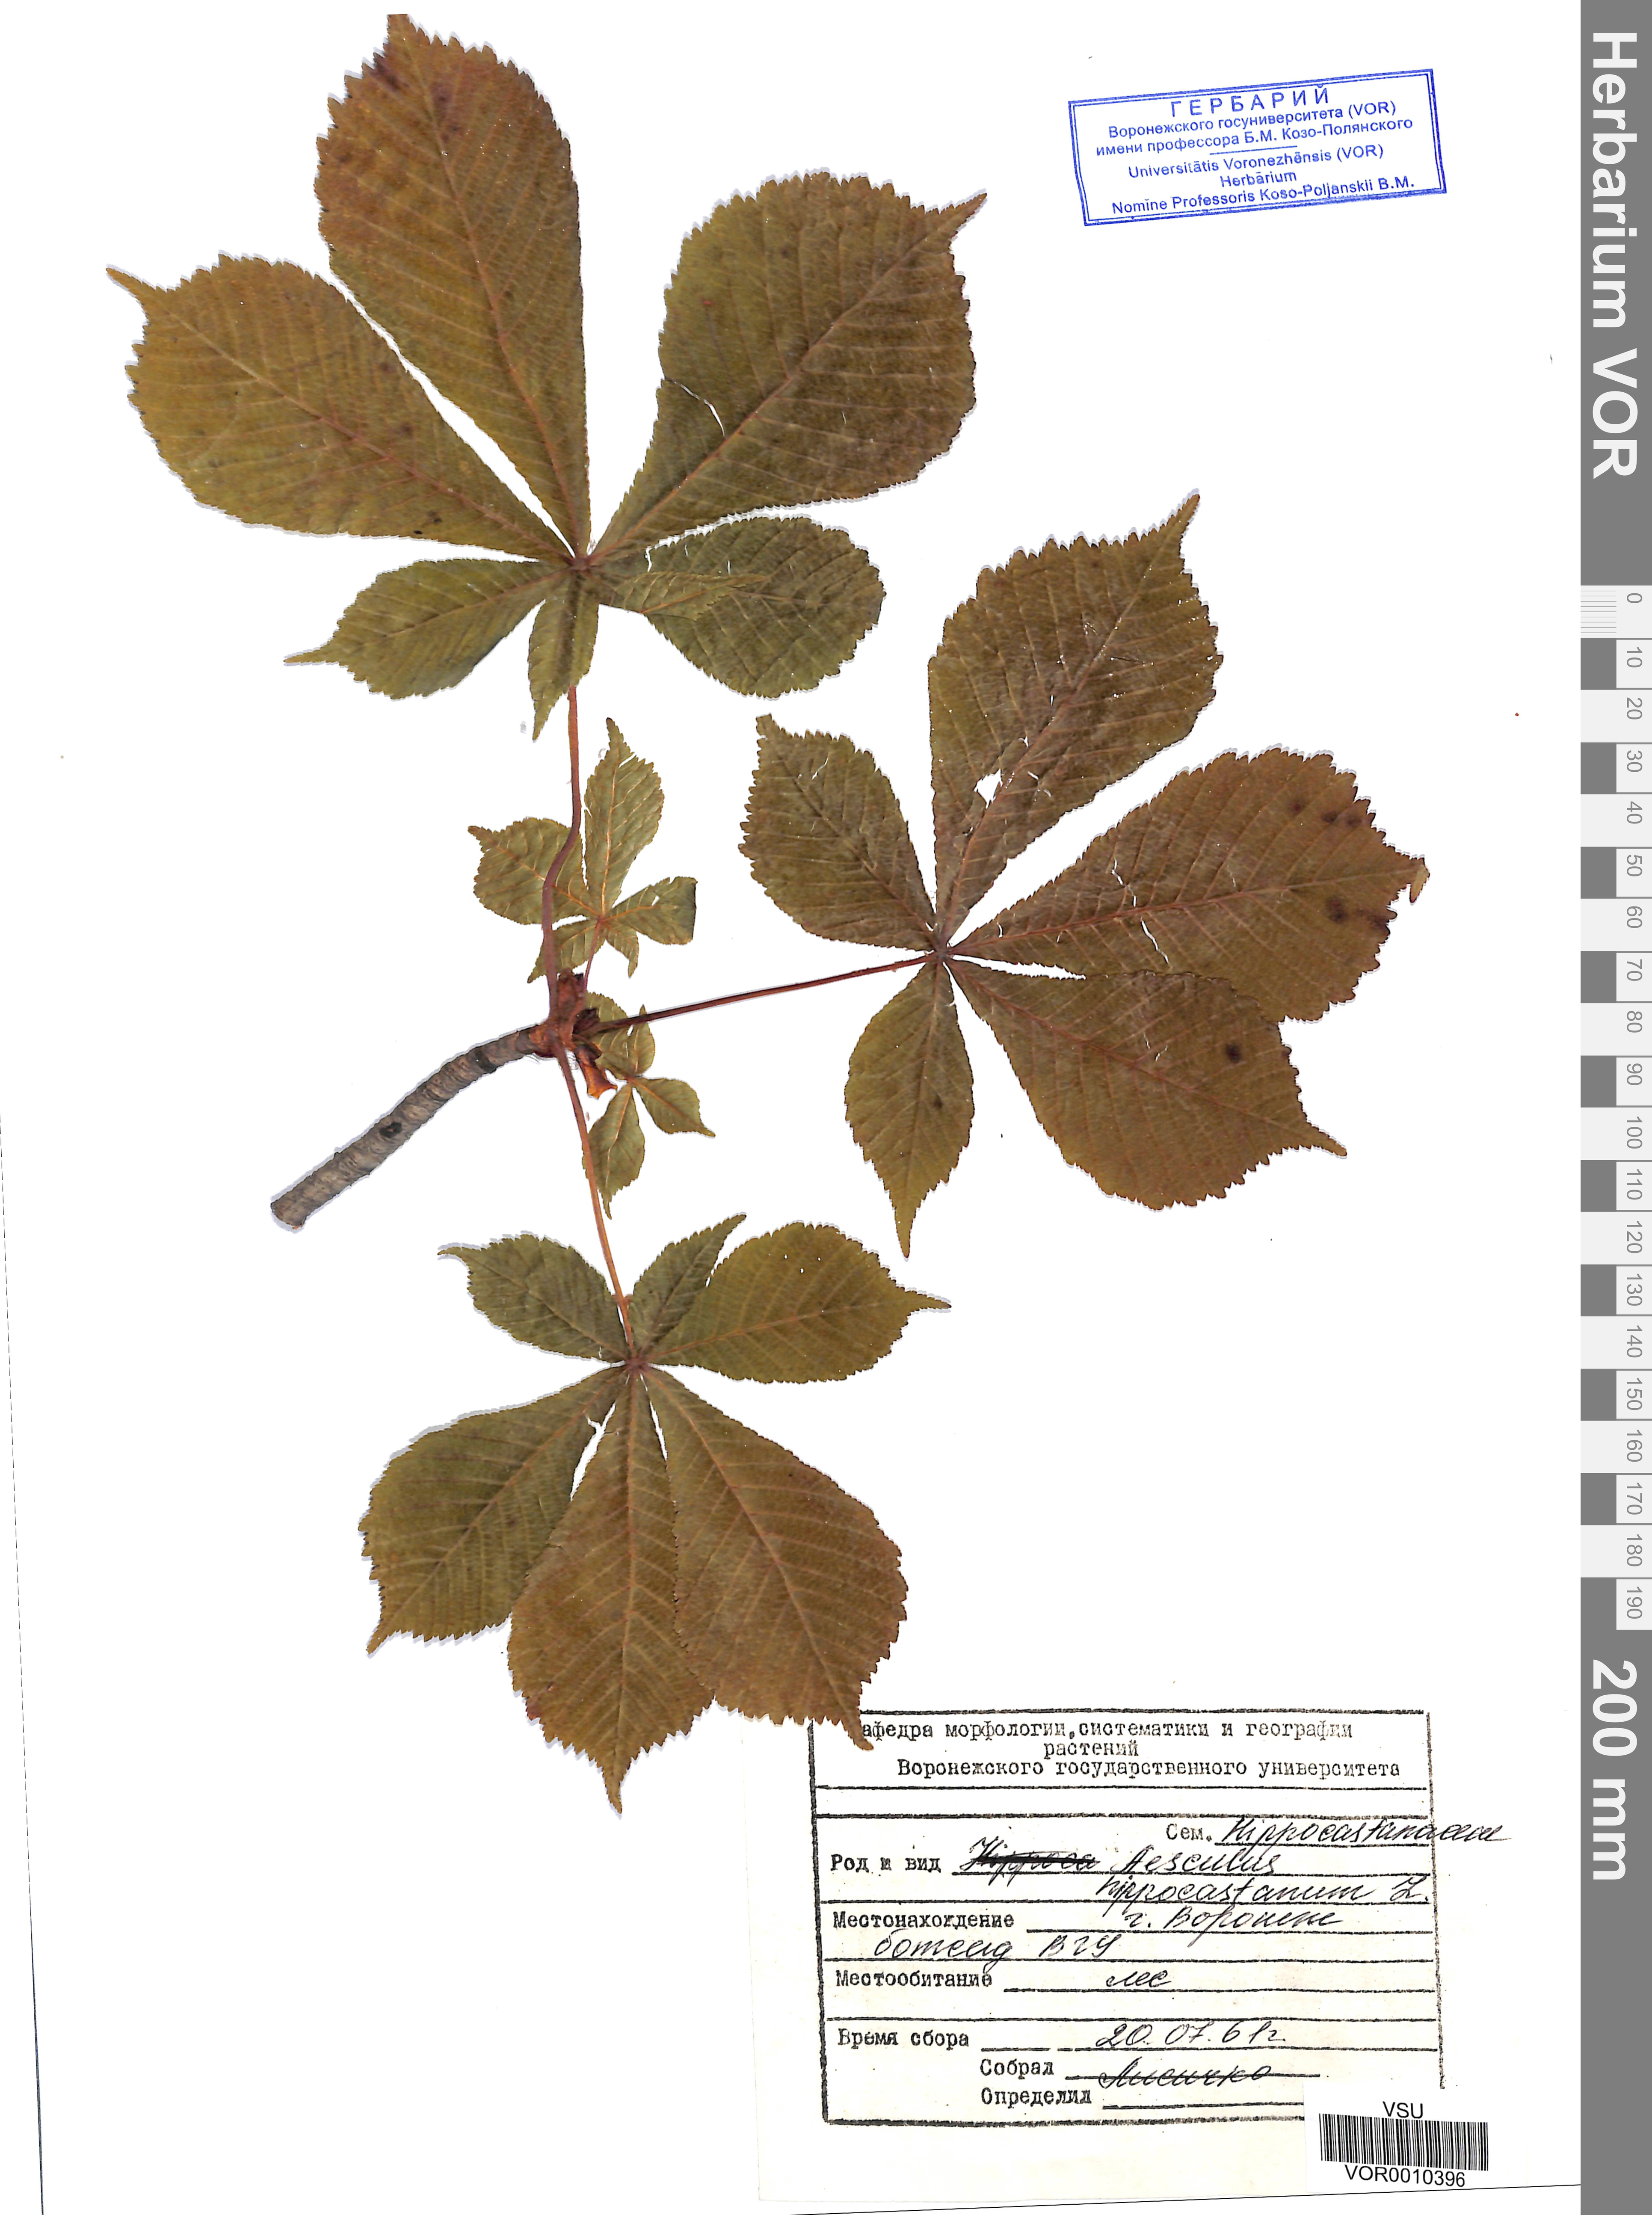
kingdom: Plantae
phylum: Tracheophyta
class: Magnoliopsida
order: Sapindales
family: Sapindaceae
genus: Aesculus
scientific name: Aesculus hippocastanum
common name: Horse-chestnut
